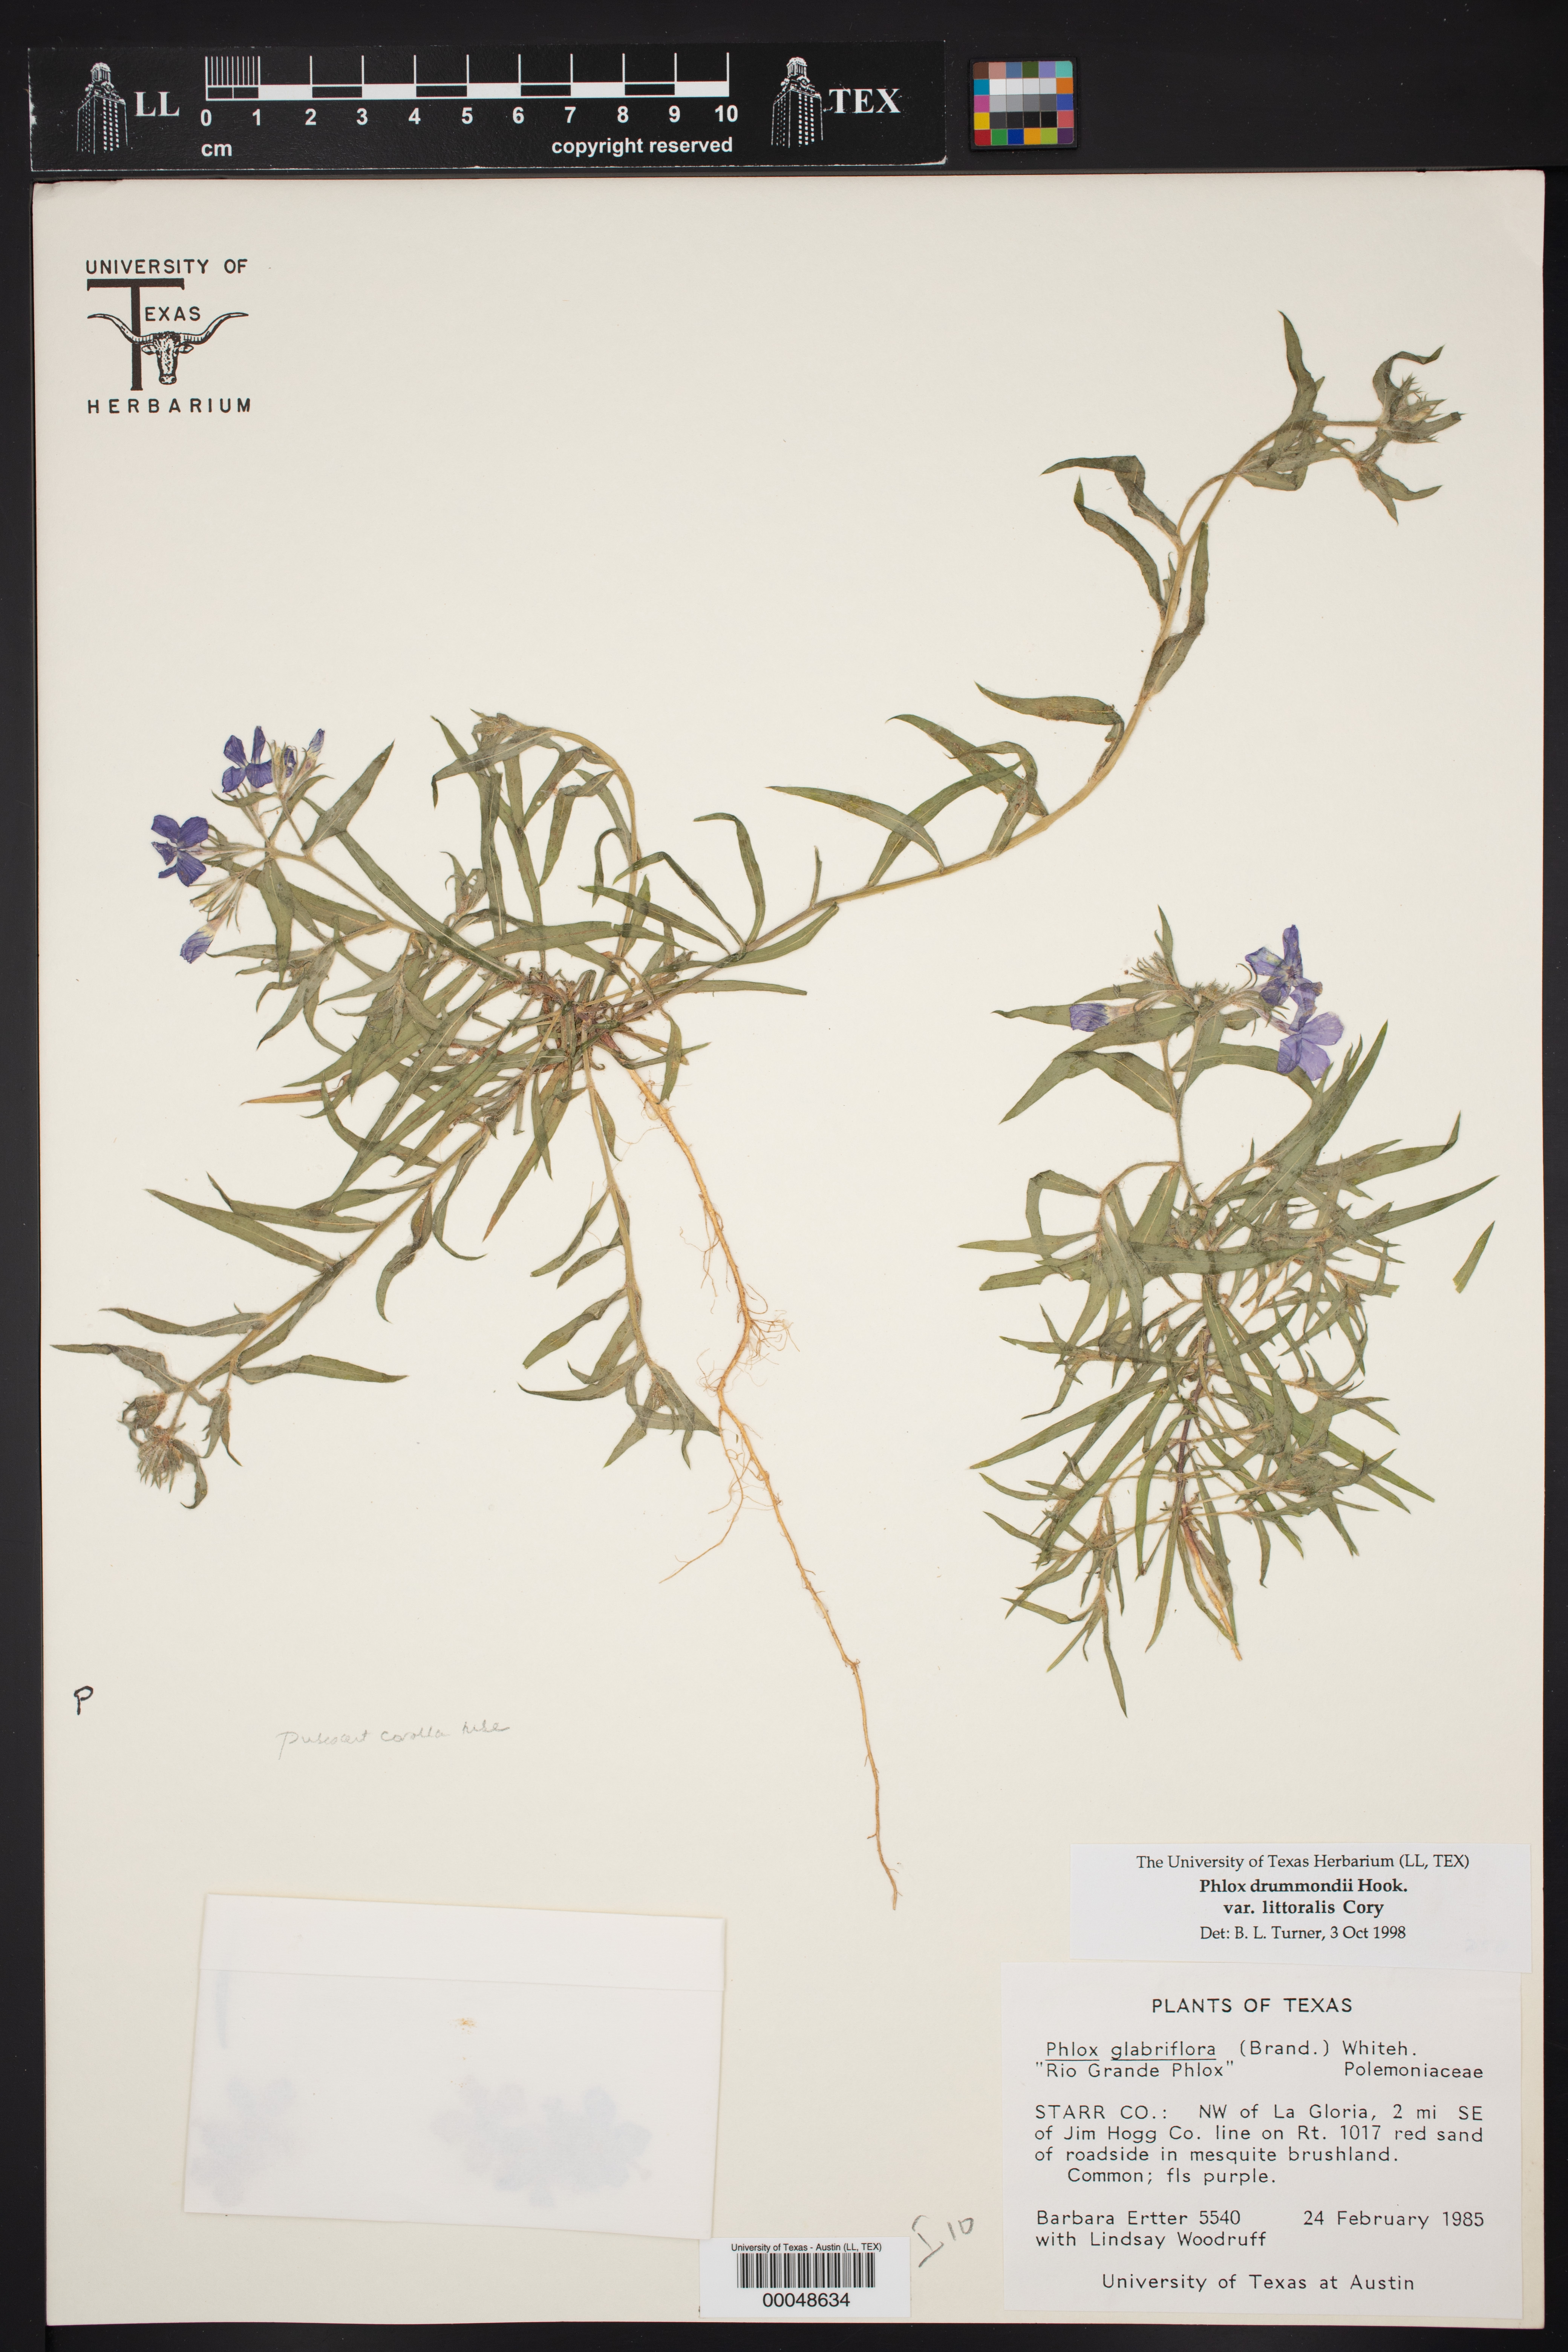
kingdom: Plantae
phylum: Tracheophyta
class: Magnoliopsida
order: Ericales
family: Polemoniaceae
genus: Phlox
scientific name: Phlox glabriflora
